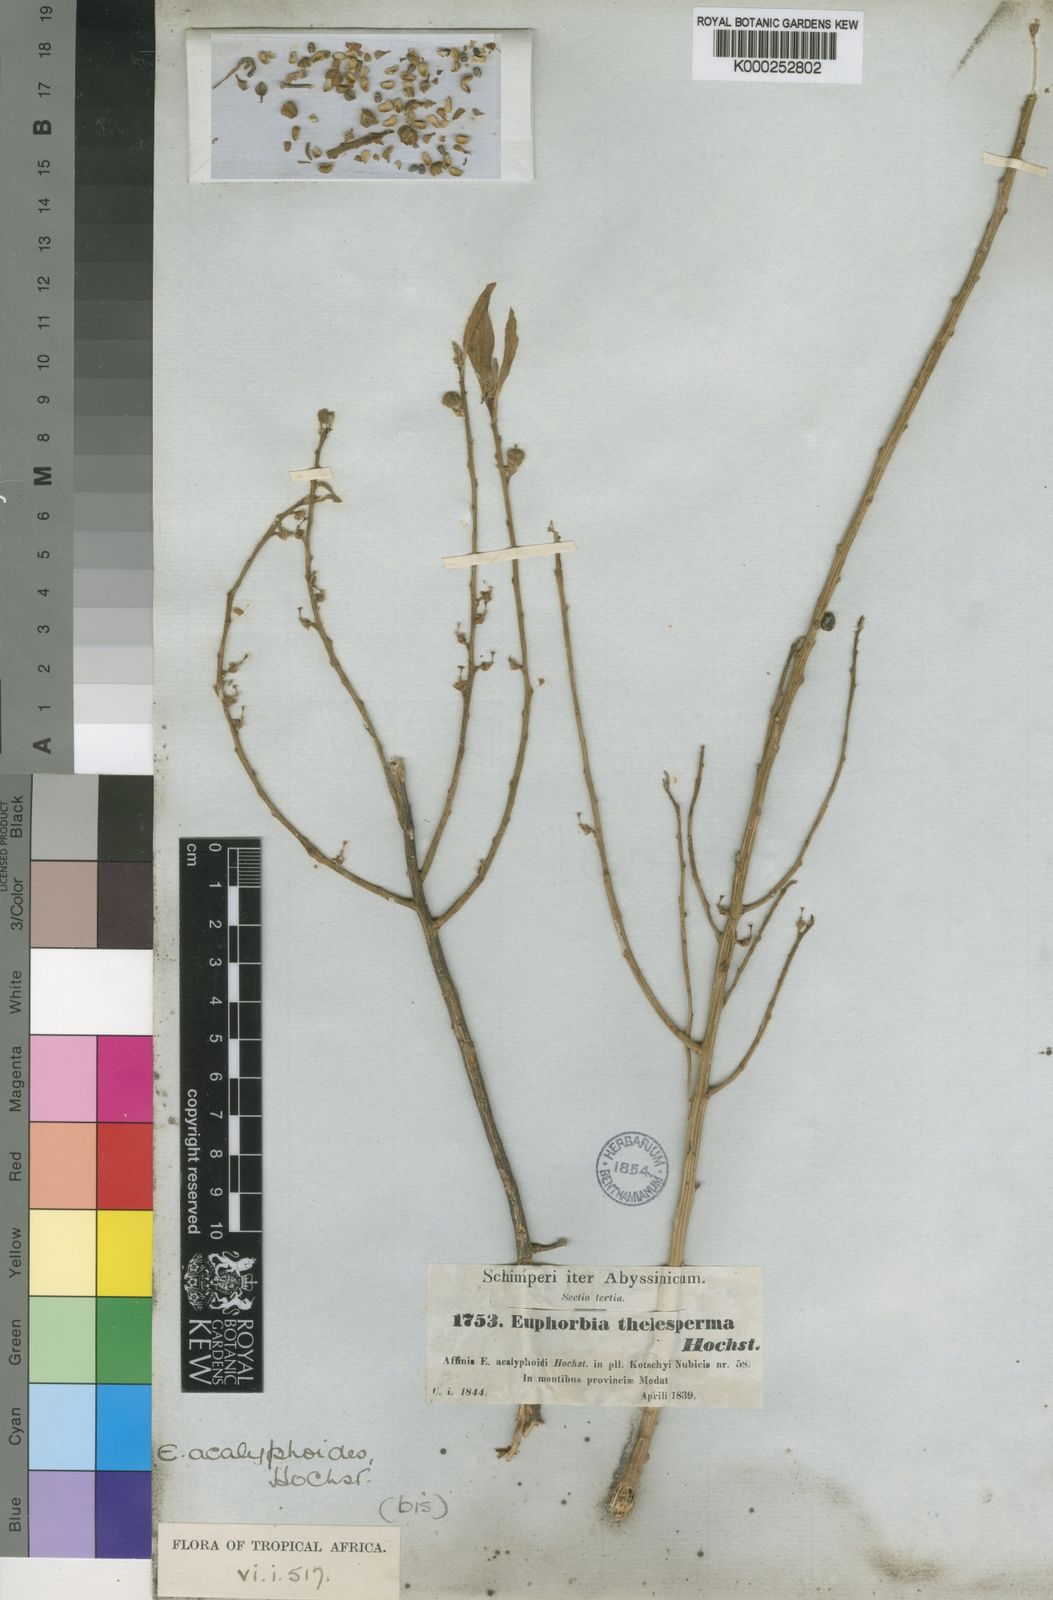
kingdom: Plantae
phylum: Tracheophyta
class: Magnoliopsida
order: Malpighiales
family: Euphorbiaceae
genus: Euphorbia
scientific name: Euphorbia acalyphoides
